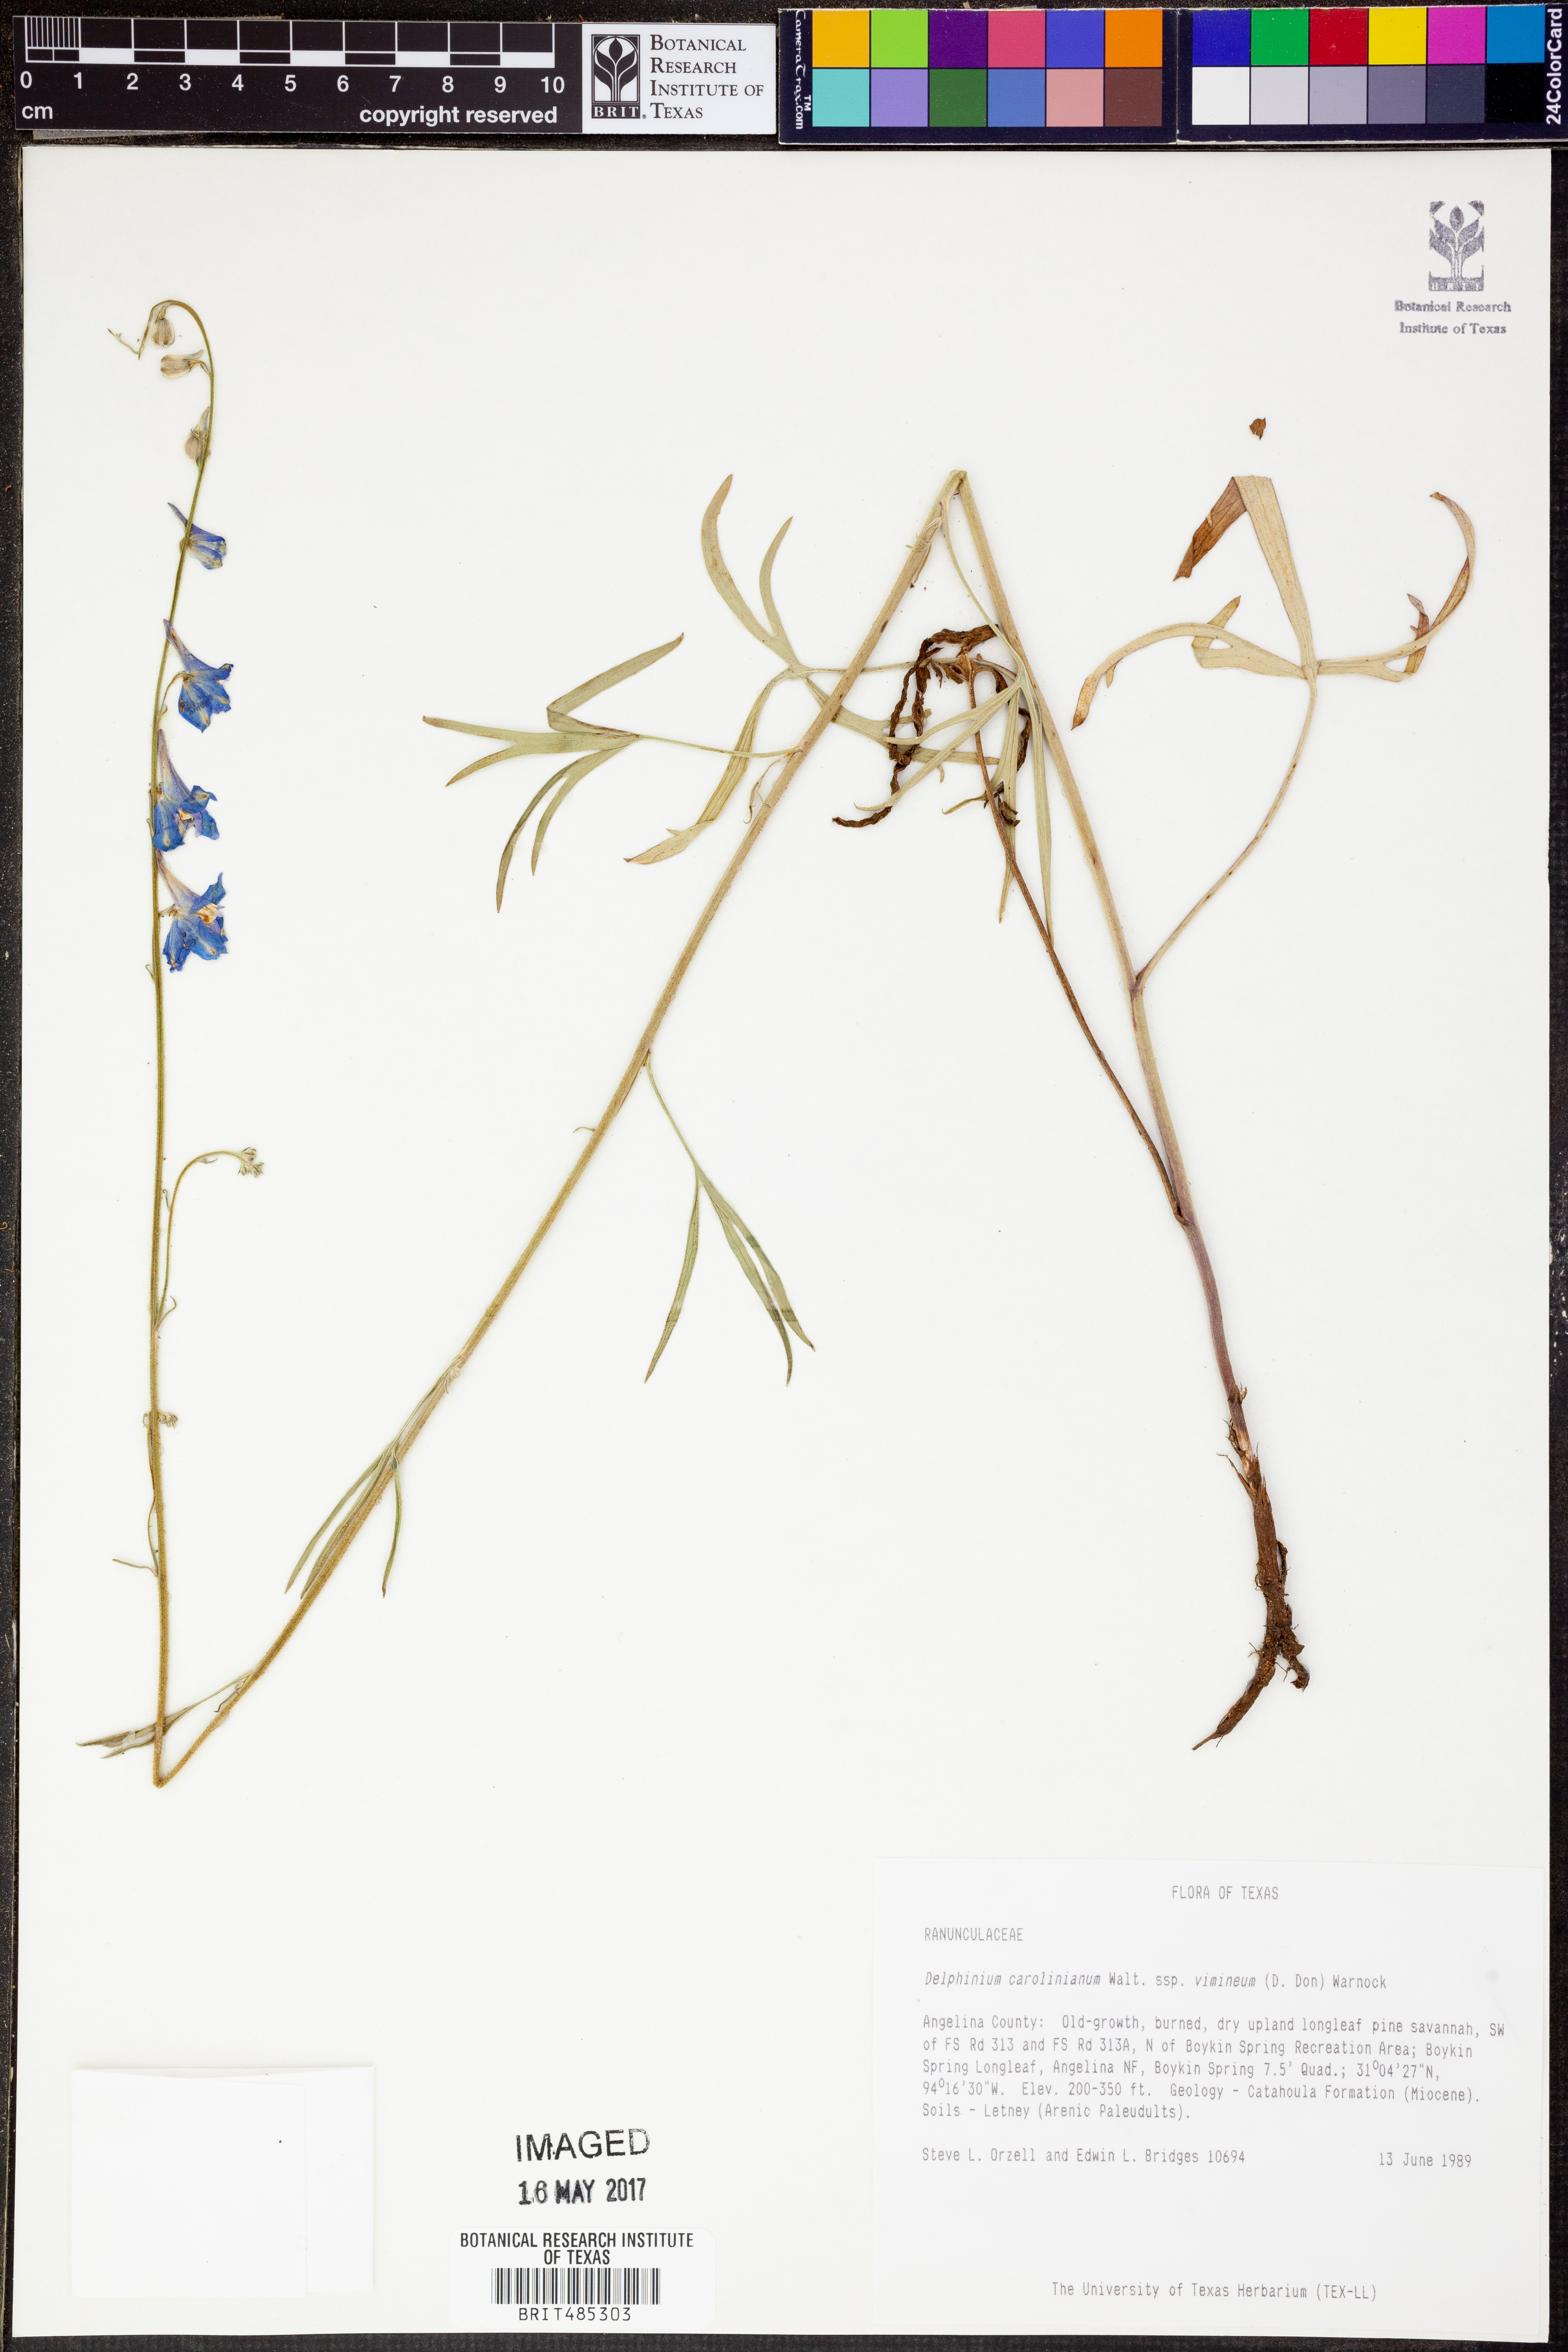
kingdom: Plantae
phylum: Tracheophyta
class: Magnoliopsida
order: Ranunculales
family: Ranunculaceae
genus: Delphinium
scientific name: Delphinium carolinianum
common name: Carolina larkspur
